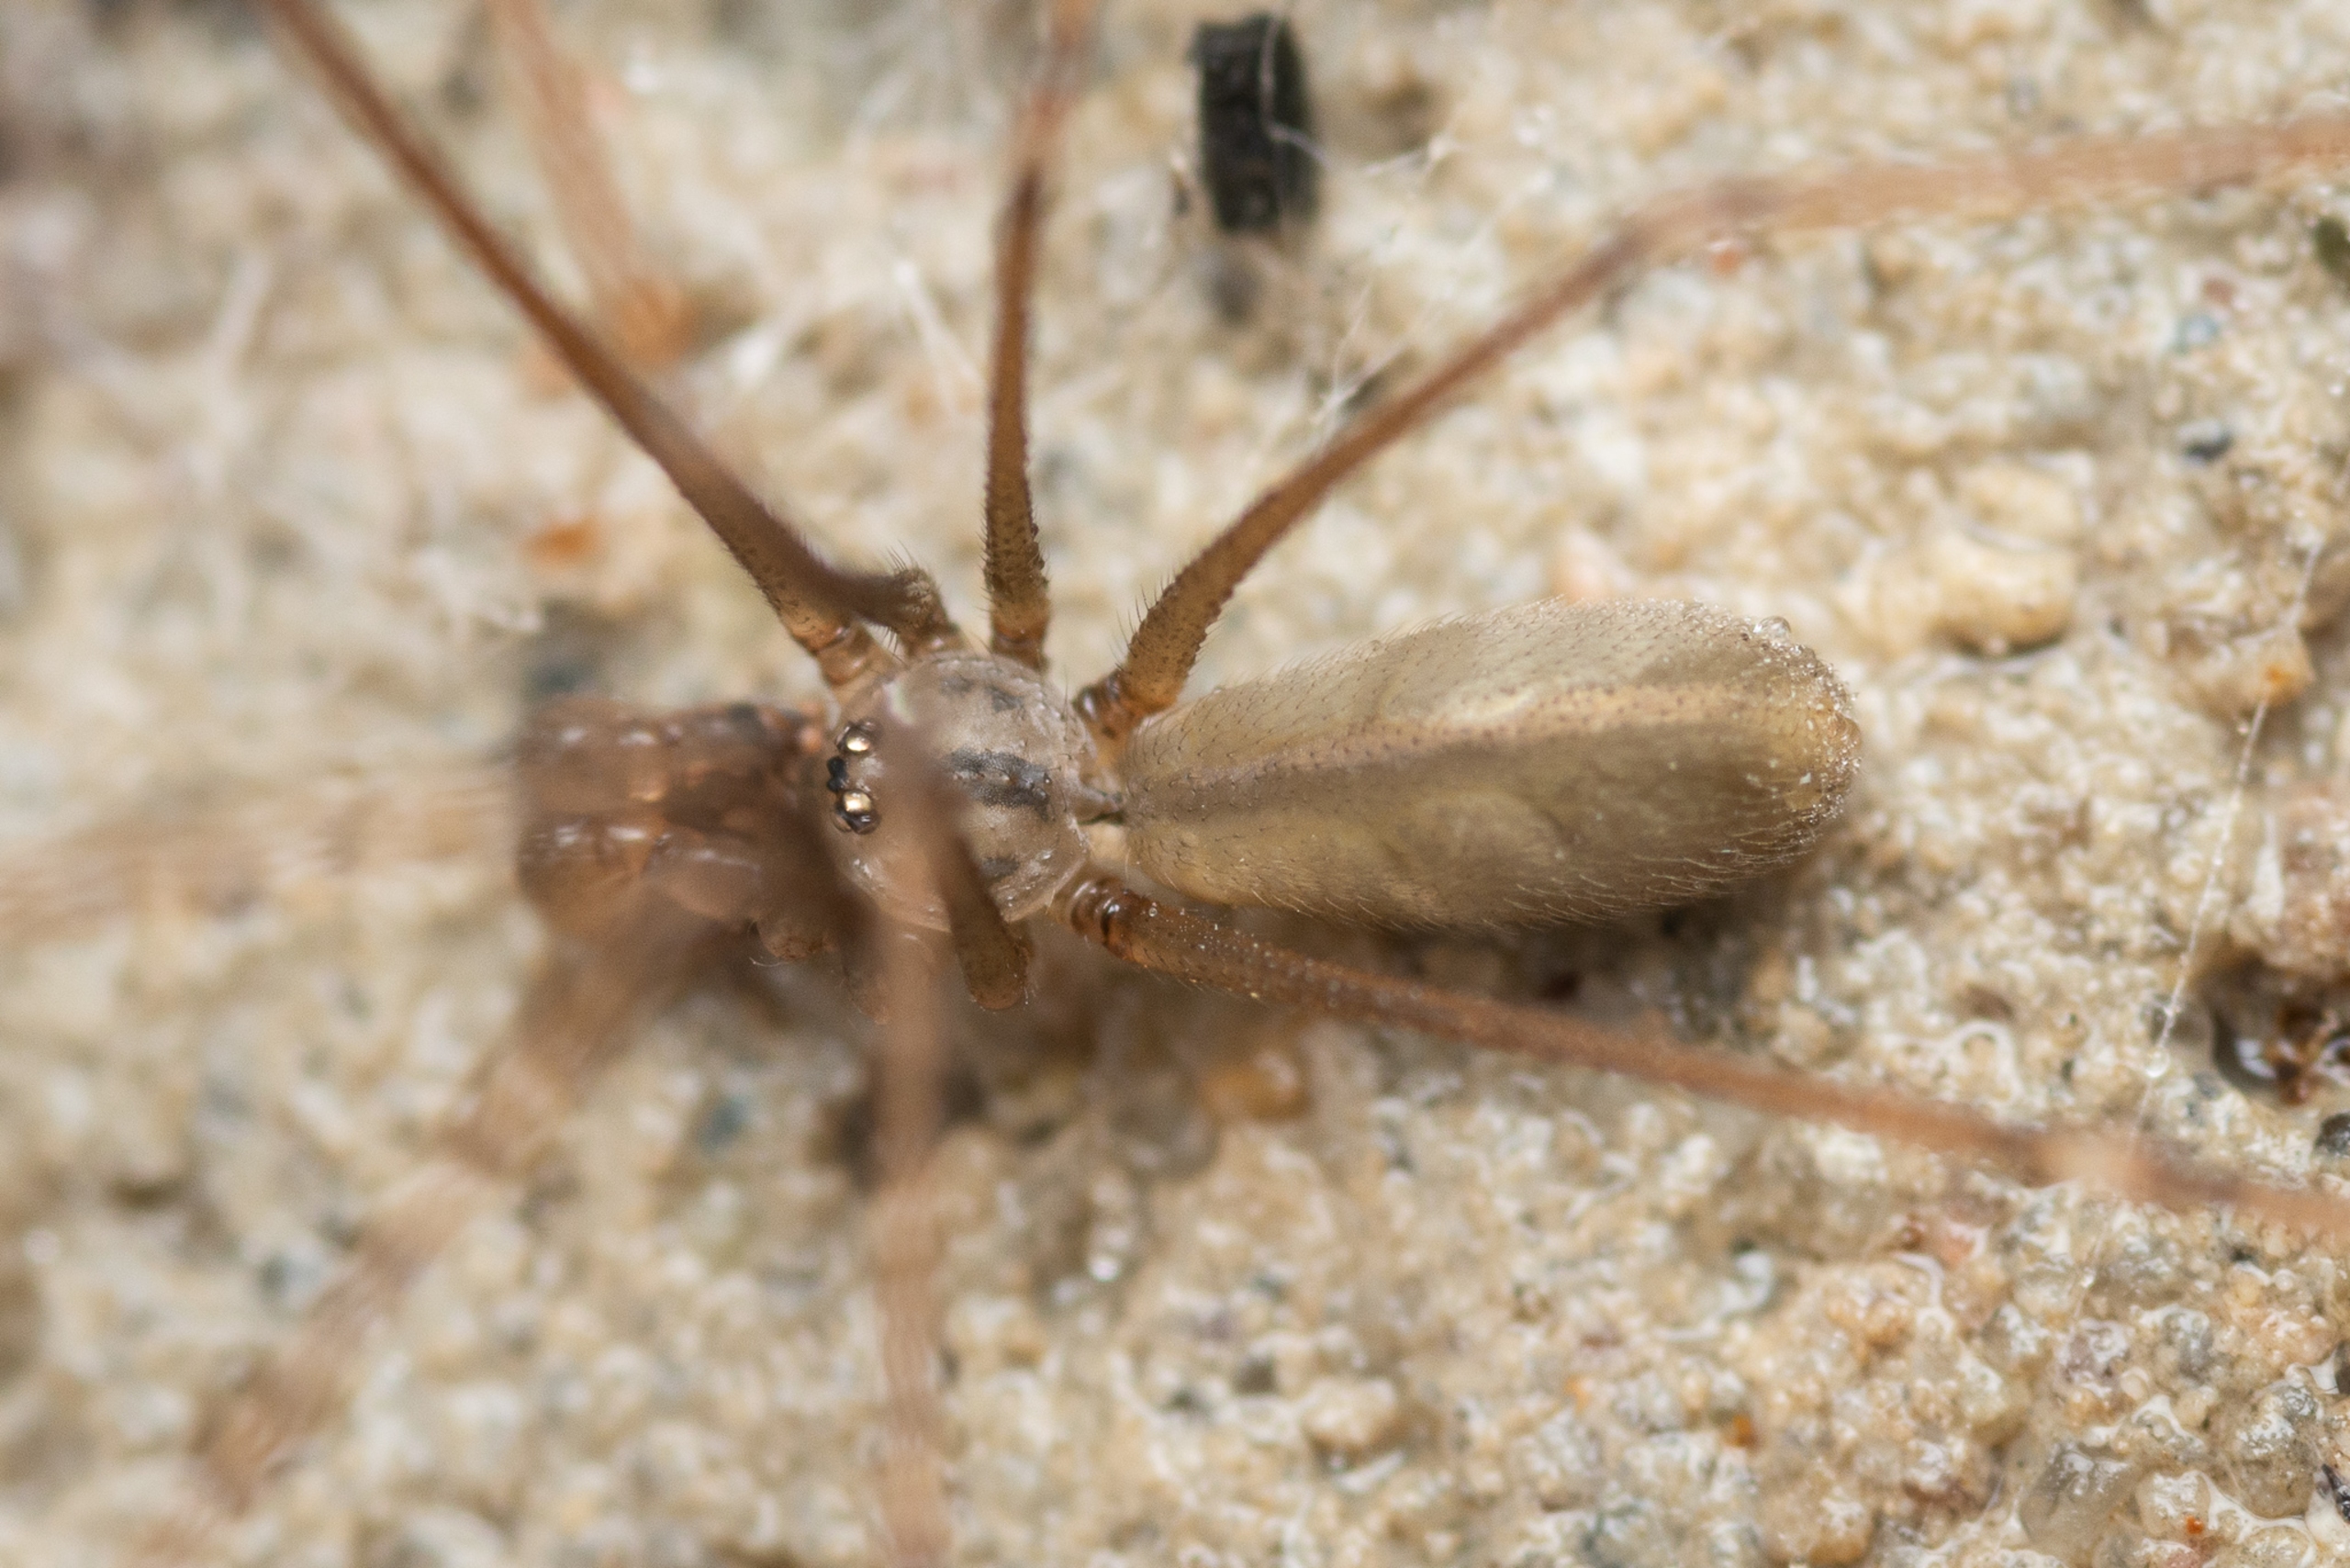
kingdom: Animalia
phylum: Arthropoda
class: Arachnida
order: Araneae
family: Pholcidae
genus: Pholcus
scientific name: Pholcus opilionoides
